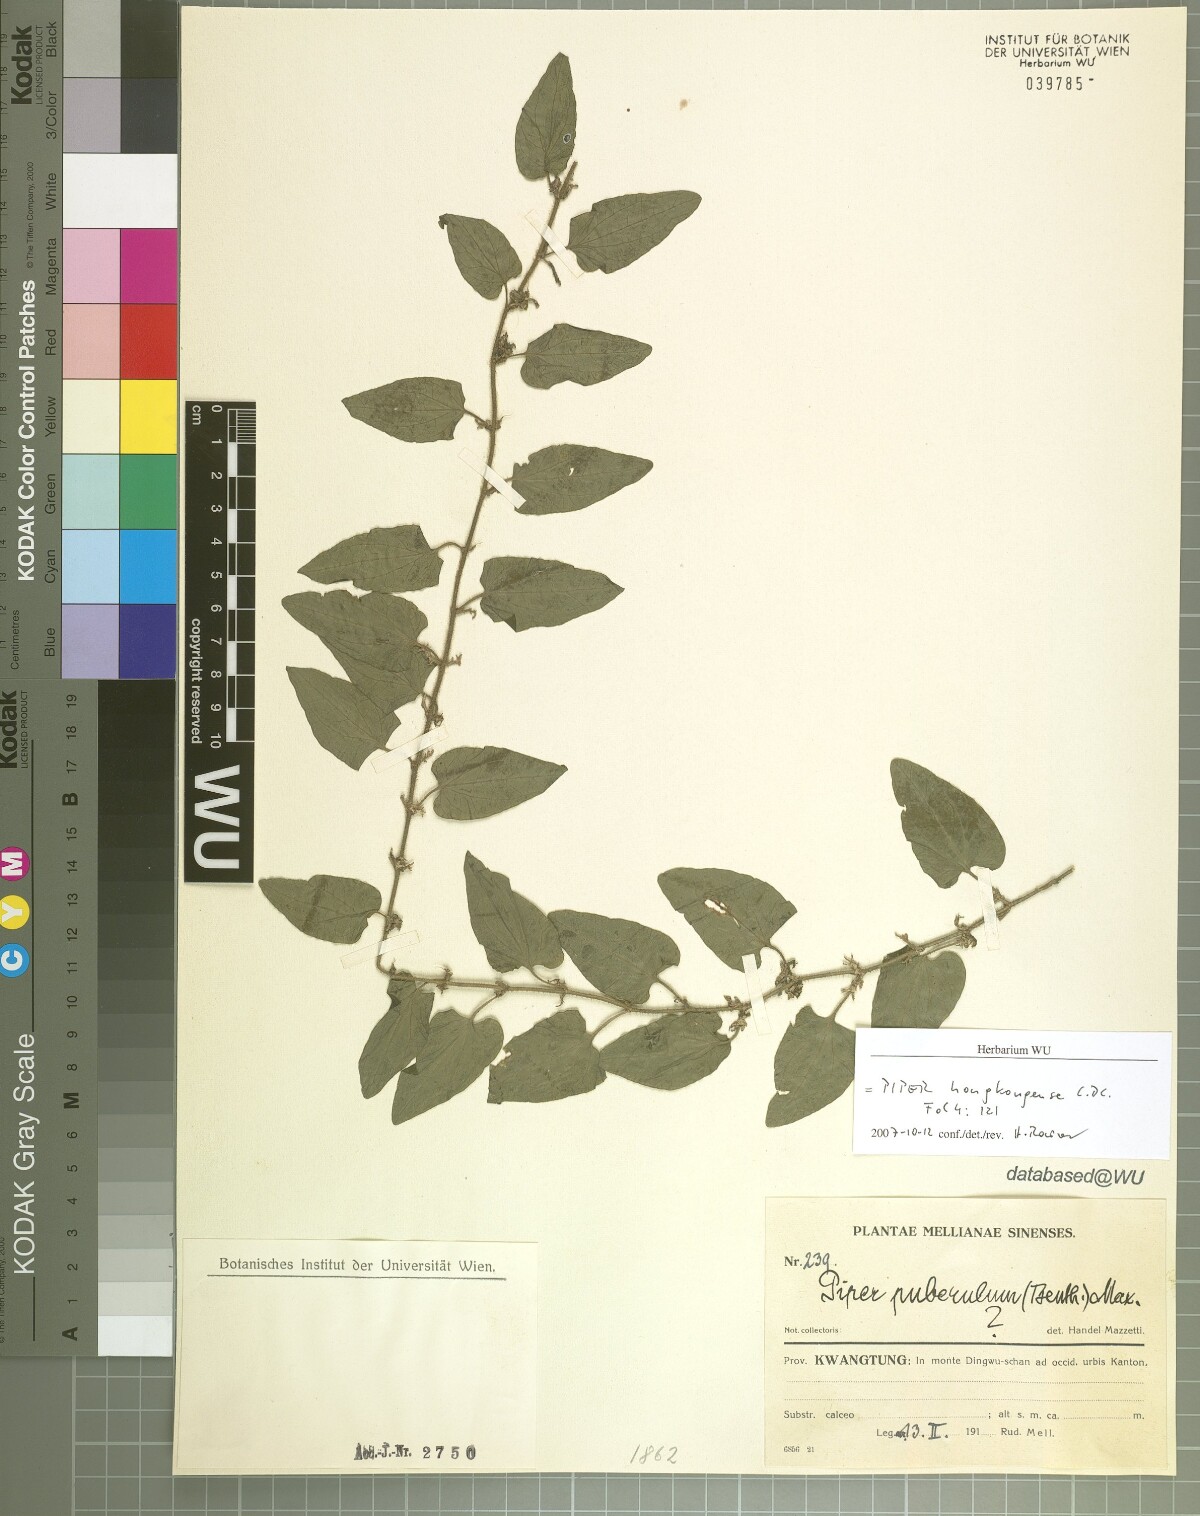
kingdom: Plantae
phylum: Tracheophyta
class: Magnoliopsida
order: Piperales
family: Piperaceae
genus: Piper
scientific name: Piper hongkongense
